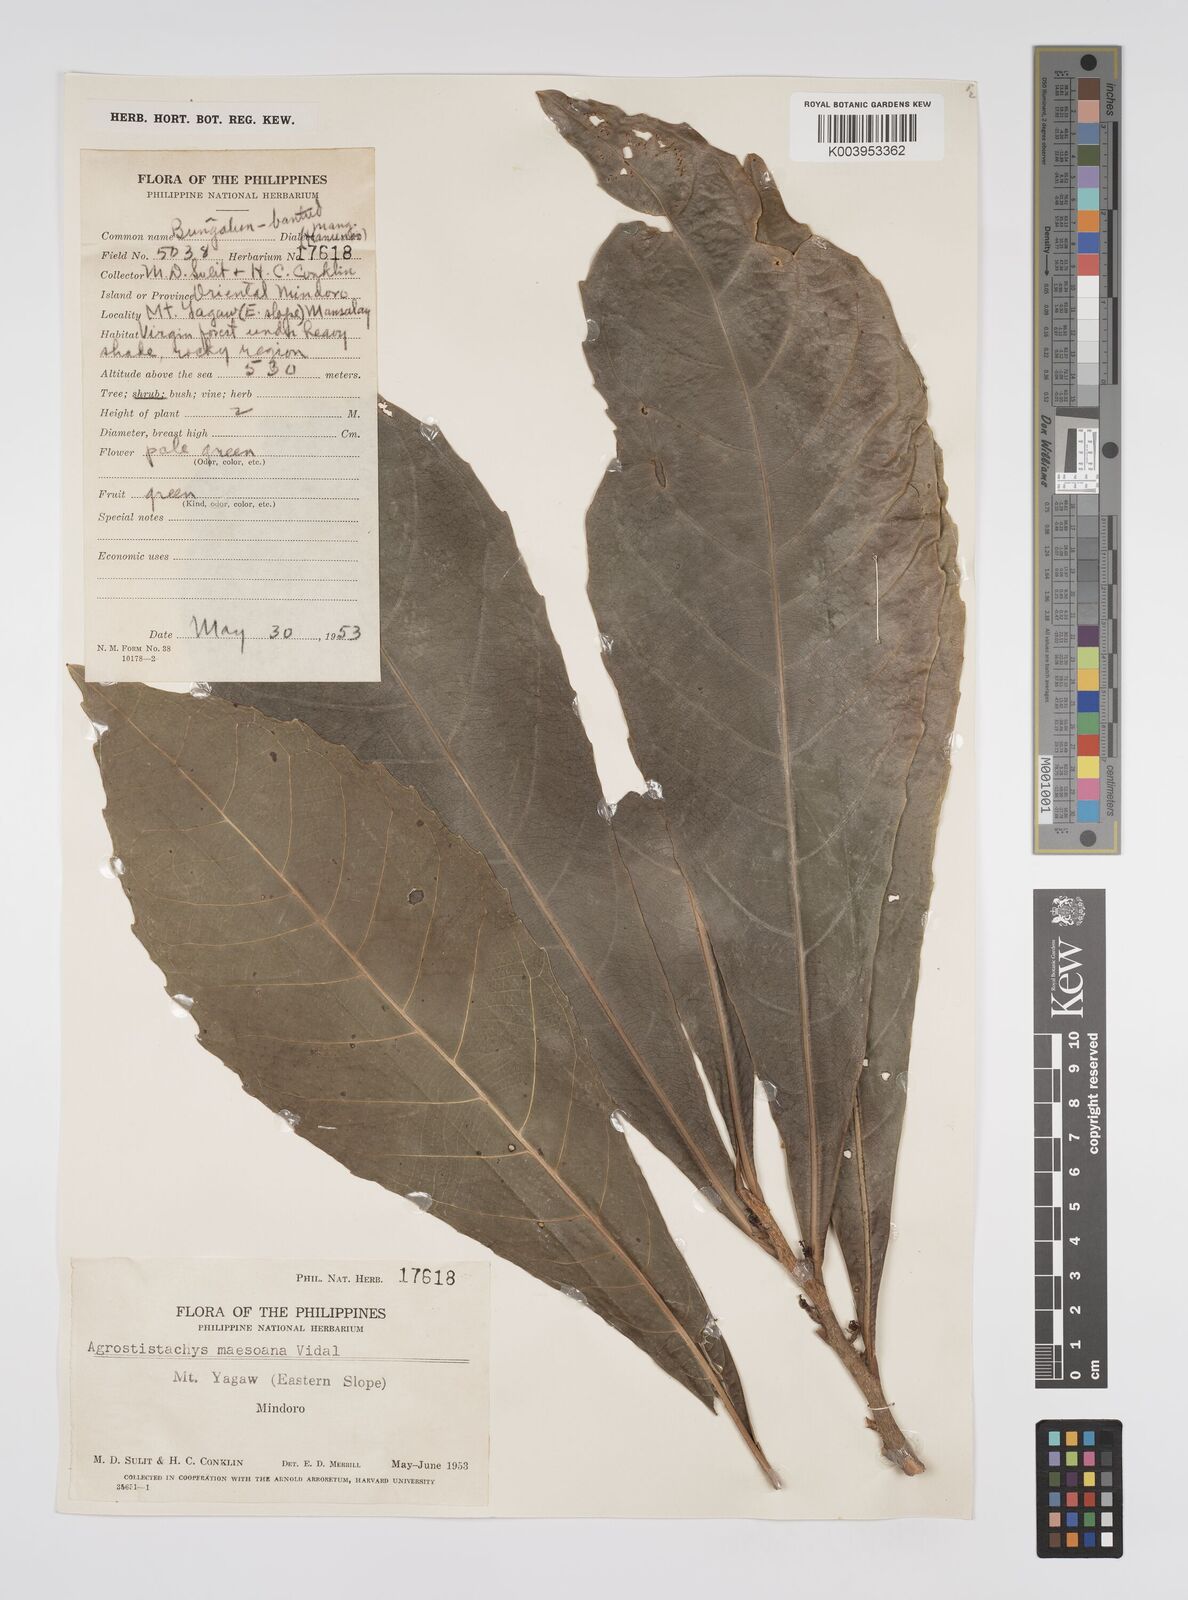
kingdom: Plantae
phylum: Tracheophyta
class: Magnoliopsida
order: Malpighiales
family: Euphorbiaceae
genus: Agrostistachys
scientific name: Agrostistachys indica
